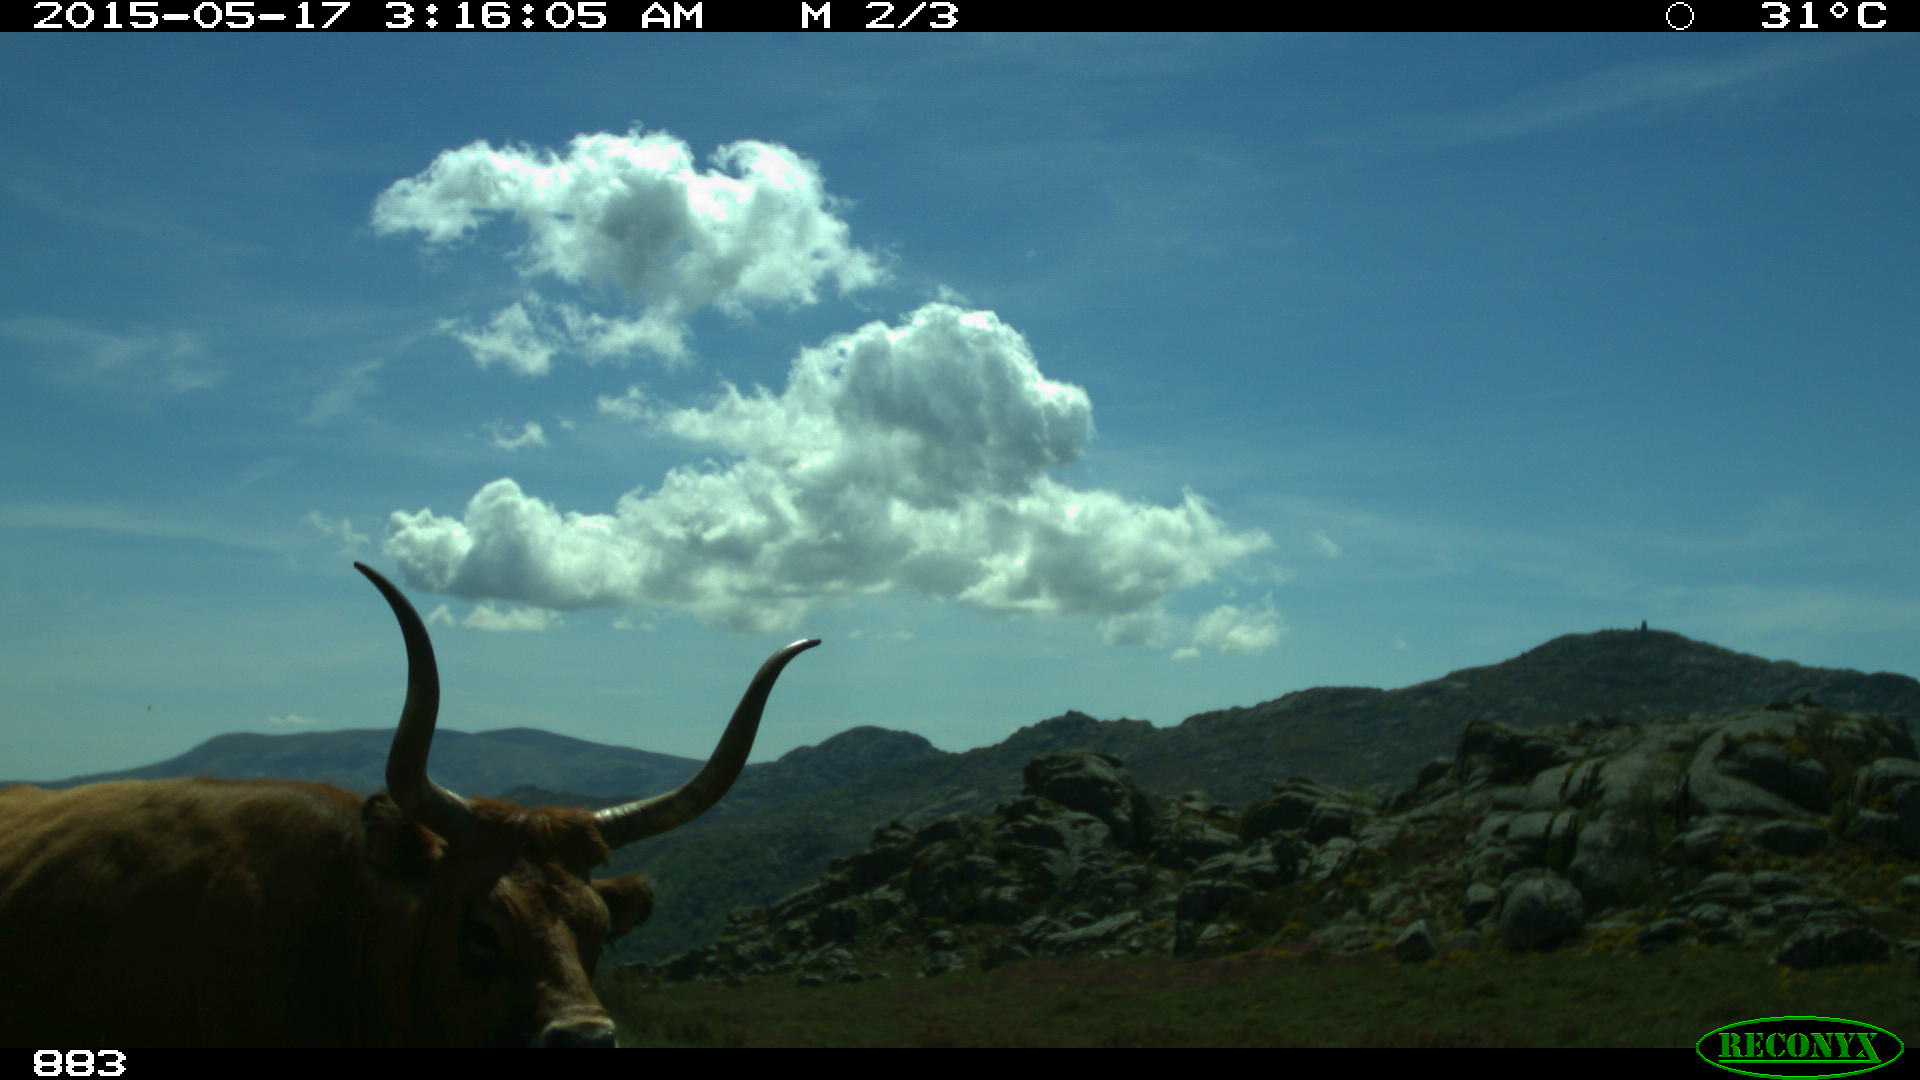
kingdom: Animalia
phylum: Chordata
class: Mammalia
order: Artiodactyla
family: Bovidae
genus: Bos
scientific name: Bos taurus
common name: Domesticated cattle
